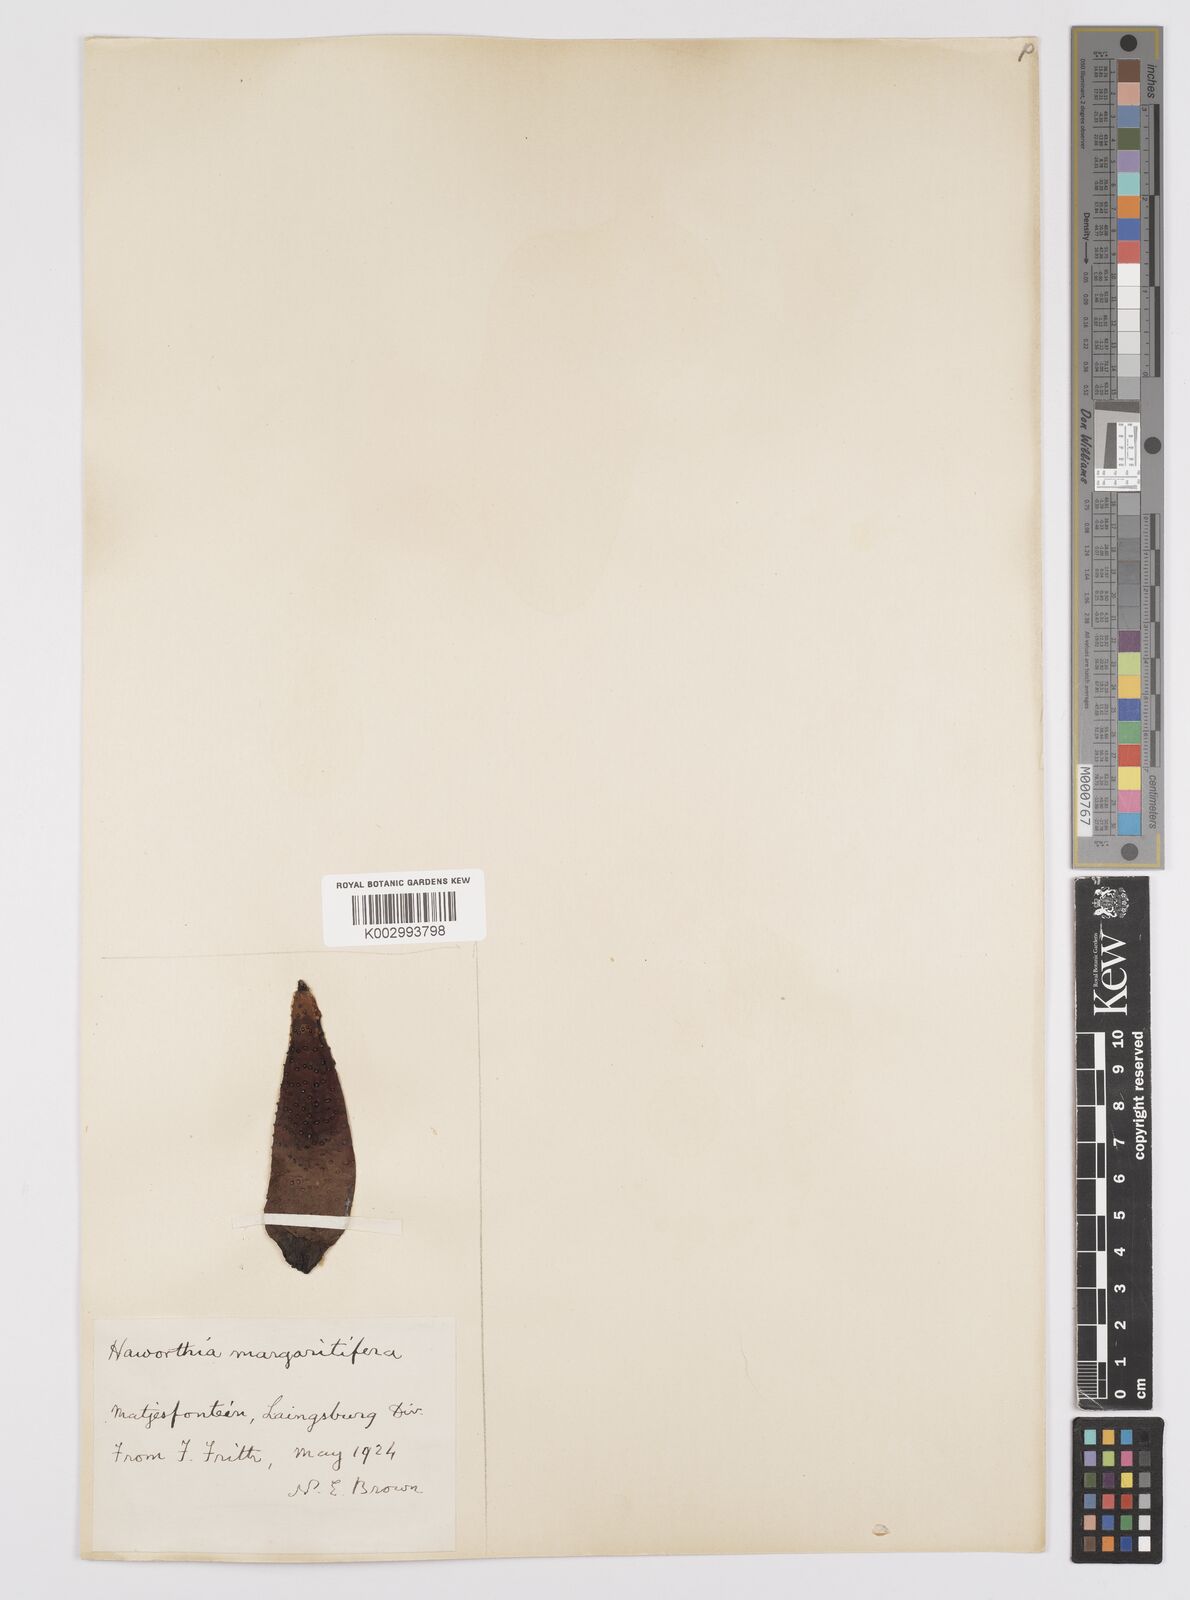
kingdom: Plantae
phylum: Tracheophyta
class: Liliopsida
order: Asparagales
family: Asphodelaceae
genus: Tulista
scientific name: Tulista pumila
